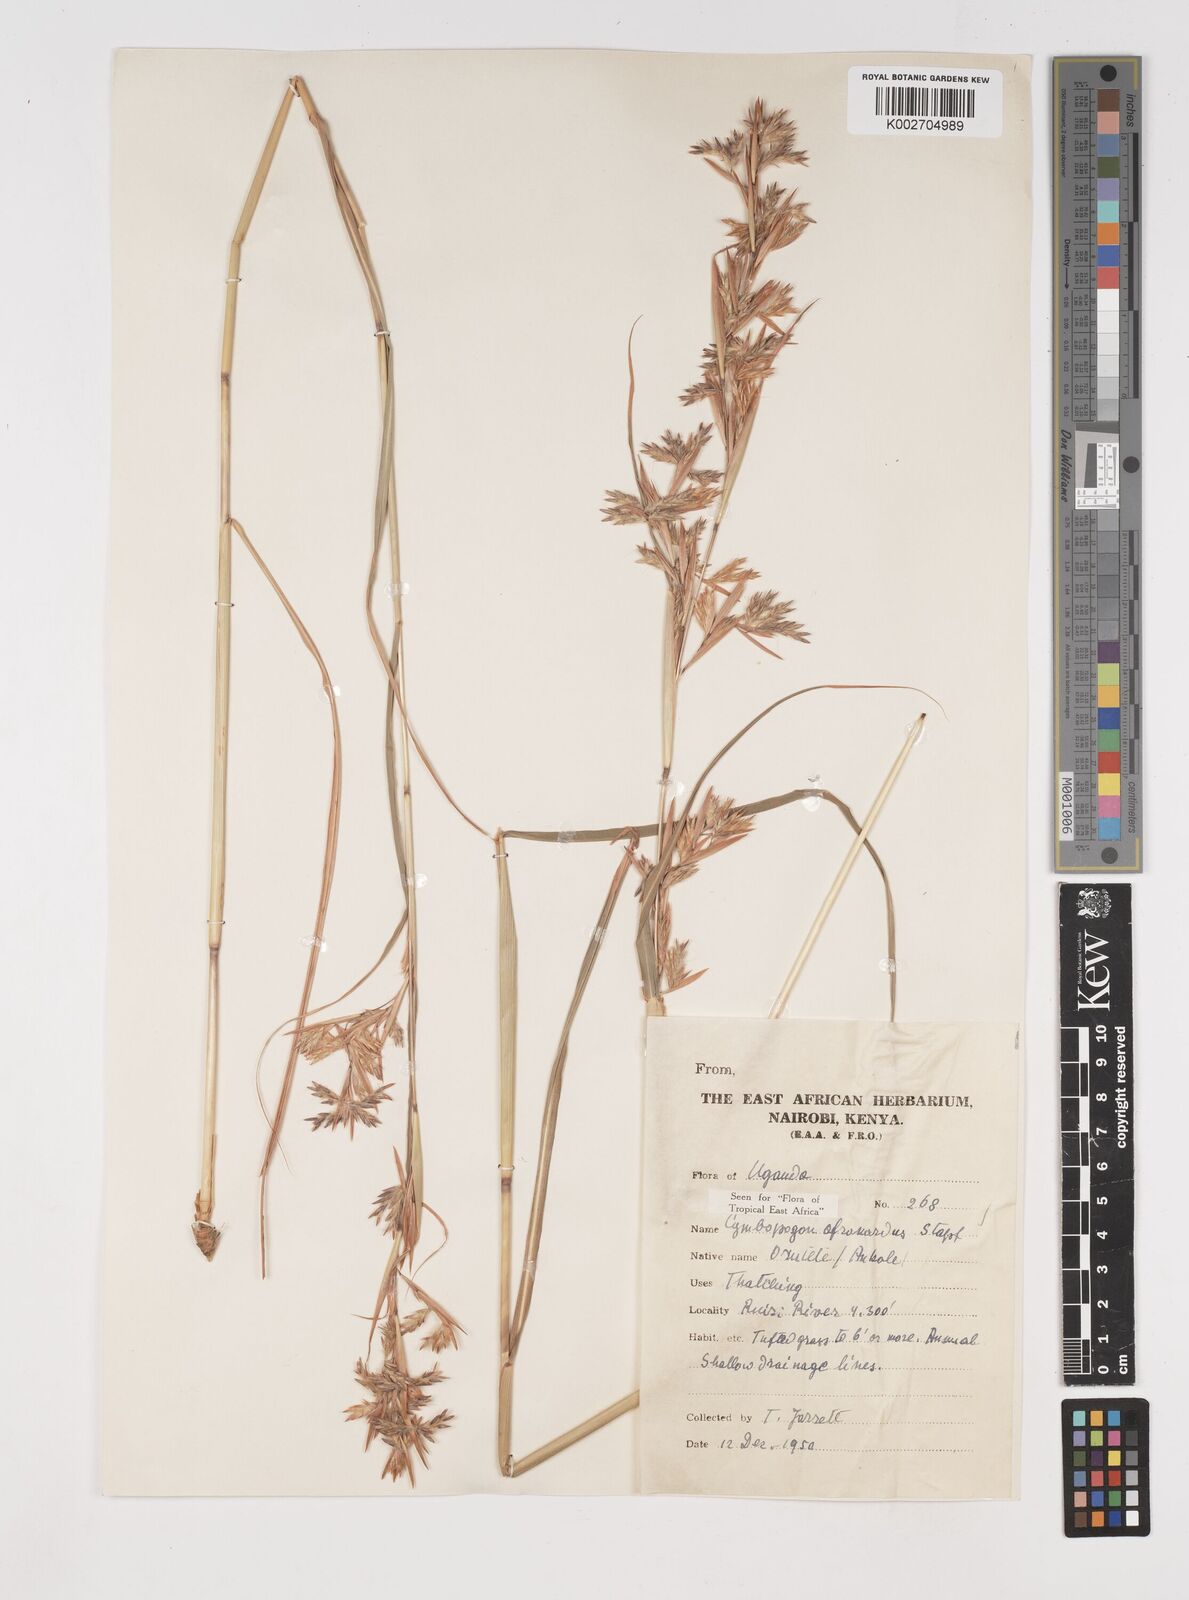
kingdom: Plantae
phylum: Tracheophyta
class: Liliopsida
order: Poales
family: Poaceae
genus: Cymbopogon
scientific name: Cymbopogon nardus
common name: Giant turpentine grass
